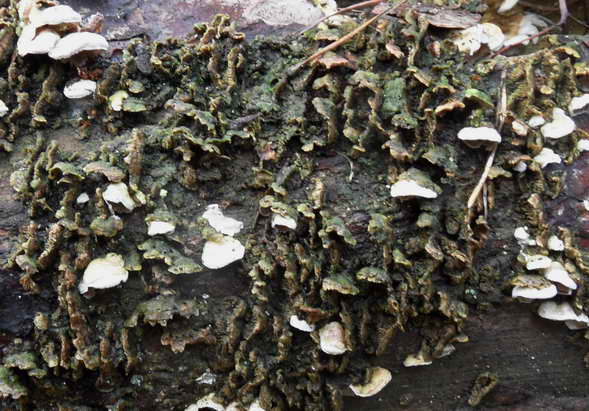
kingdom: Fungi
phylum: Basidiomycota
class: Agaricomycetes
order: Polyporales
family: Incrustoporiaceae
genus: Skeletocutis
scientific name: Skeletocutis carneogrisea
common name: rødgrå krystalporesvamp
